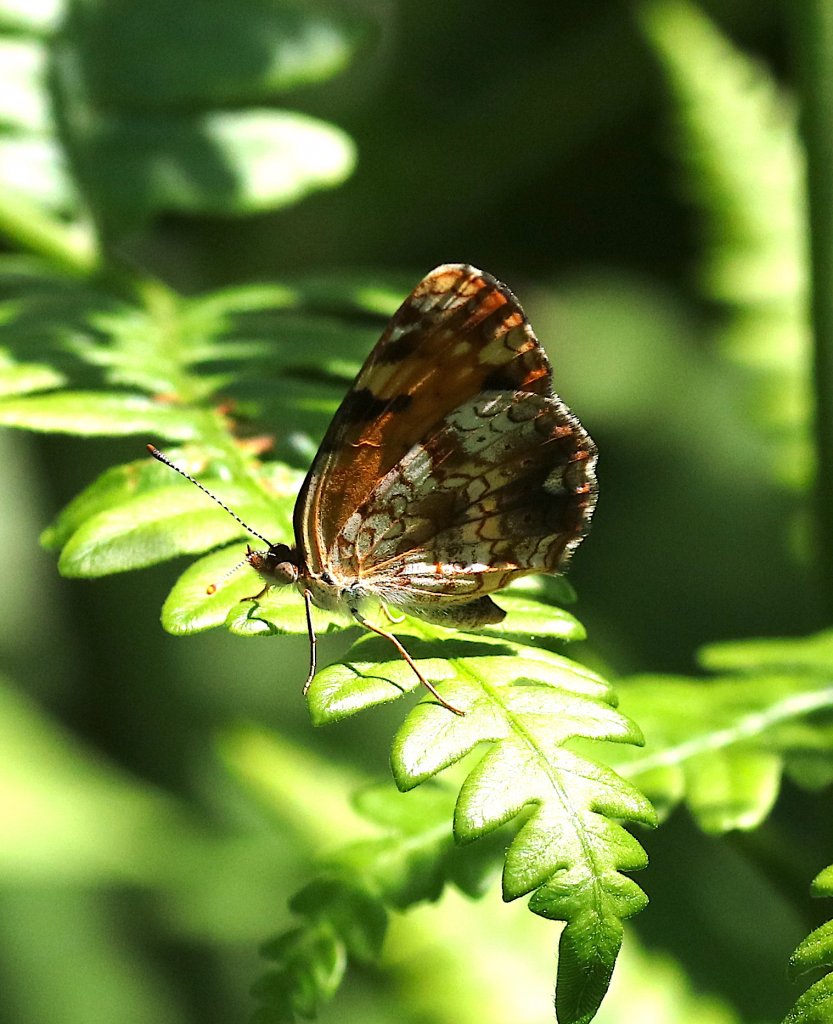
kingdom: Animalia
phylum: Arthropoda
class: Insecta
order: Lepidoptera
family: Nymphalidae
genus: Phyciodes
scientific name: Phyciodes tharos
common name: Pearl Crescent
